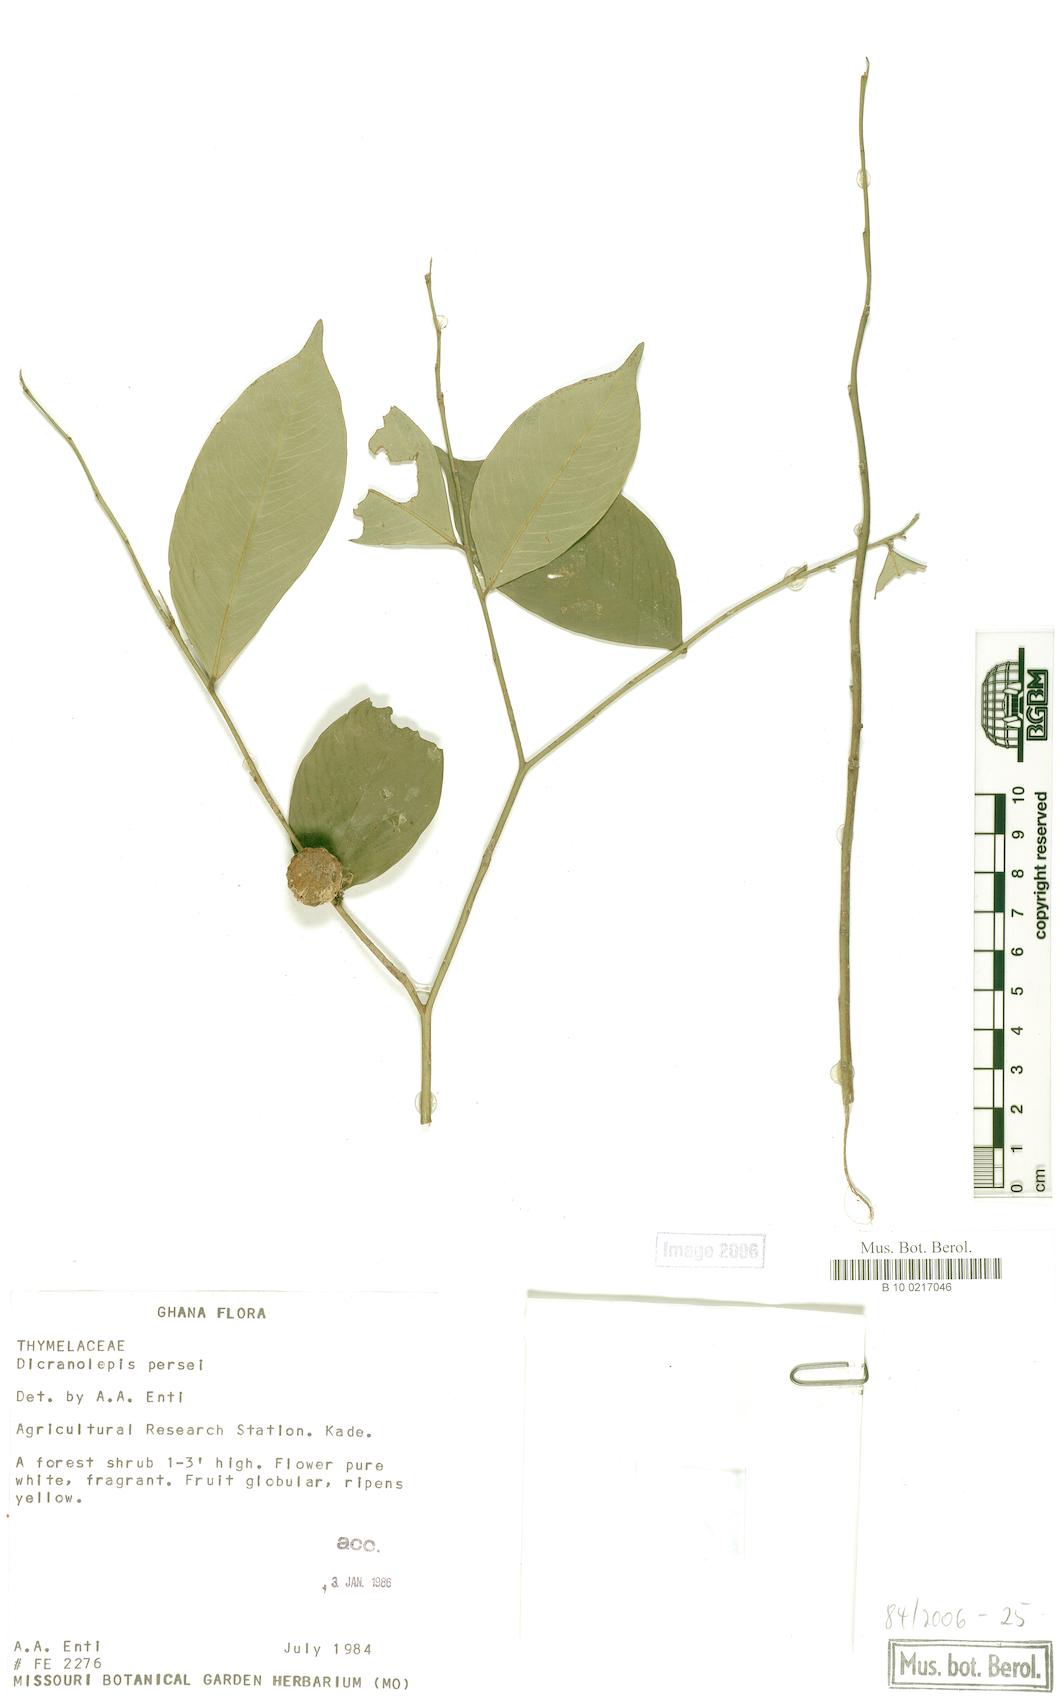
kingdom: Plantae
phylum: Tracheophyta
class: Magnoliopsida
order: Malvales
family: Thymelaeaceae
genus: Dicranolepis
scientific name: Dicranolepis persei
